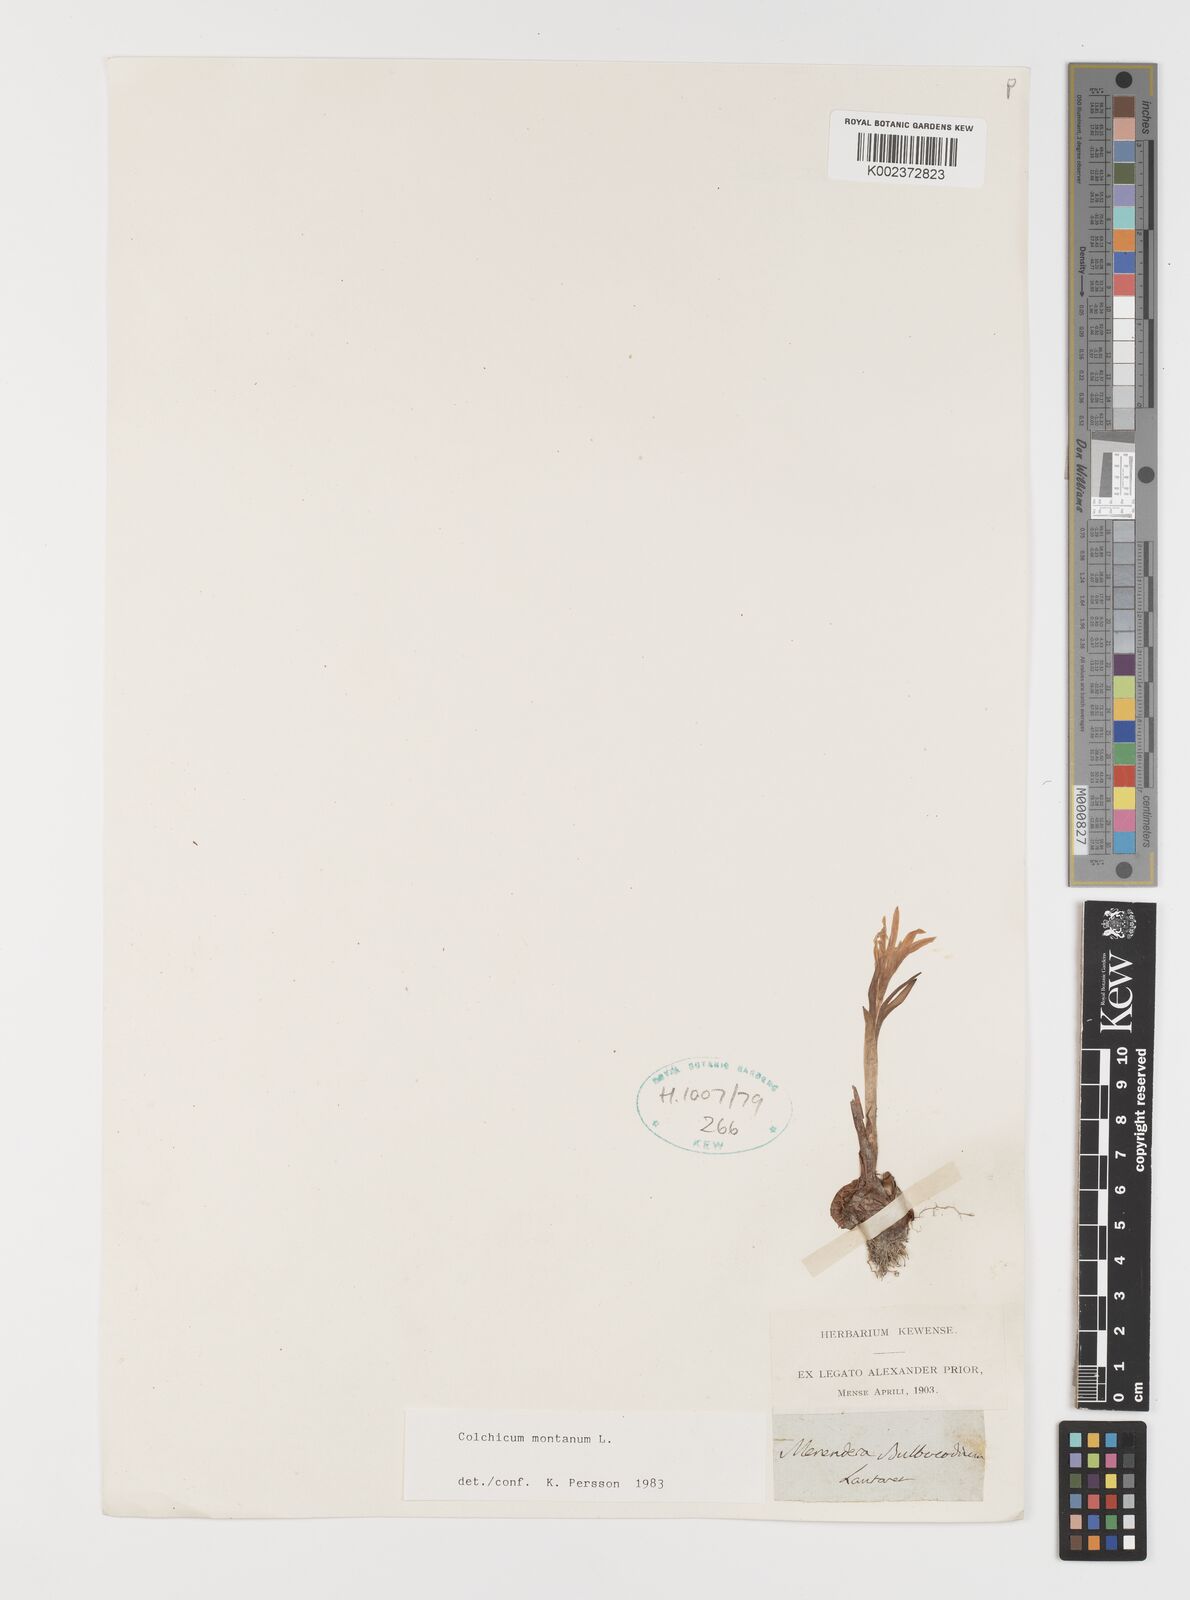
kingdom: Plantae
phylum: Tracheophyta
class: Liliopsida
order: Liliales
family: Colchicaceae
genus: Colchicum
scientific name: Colchicum montanum
